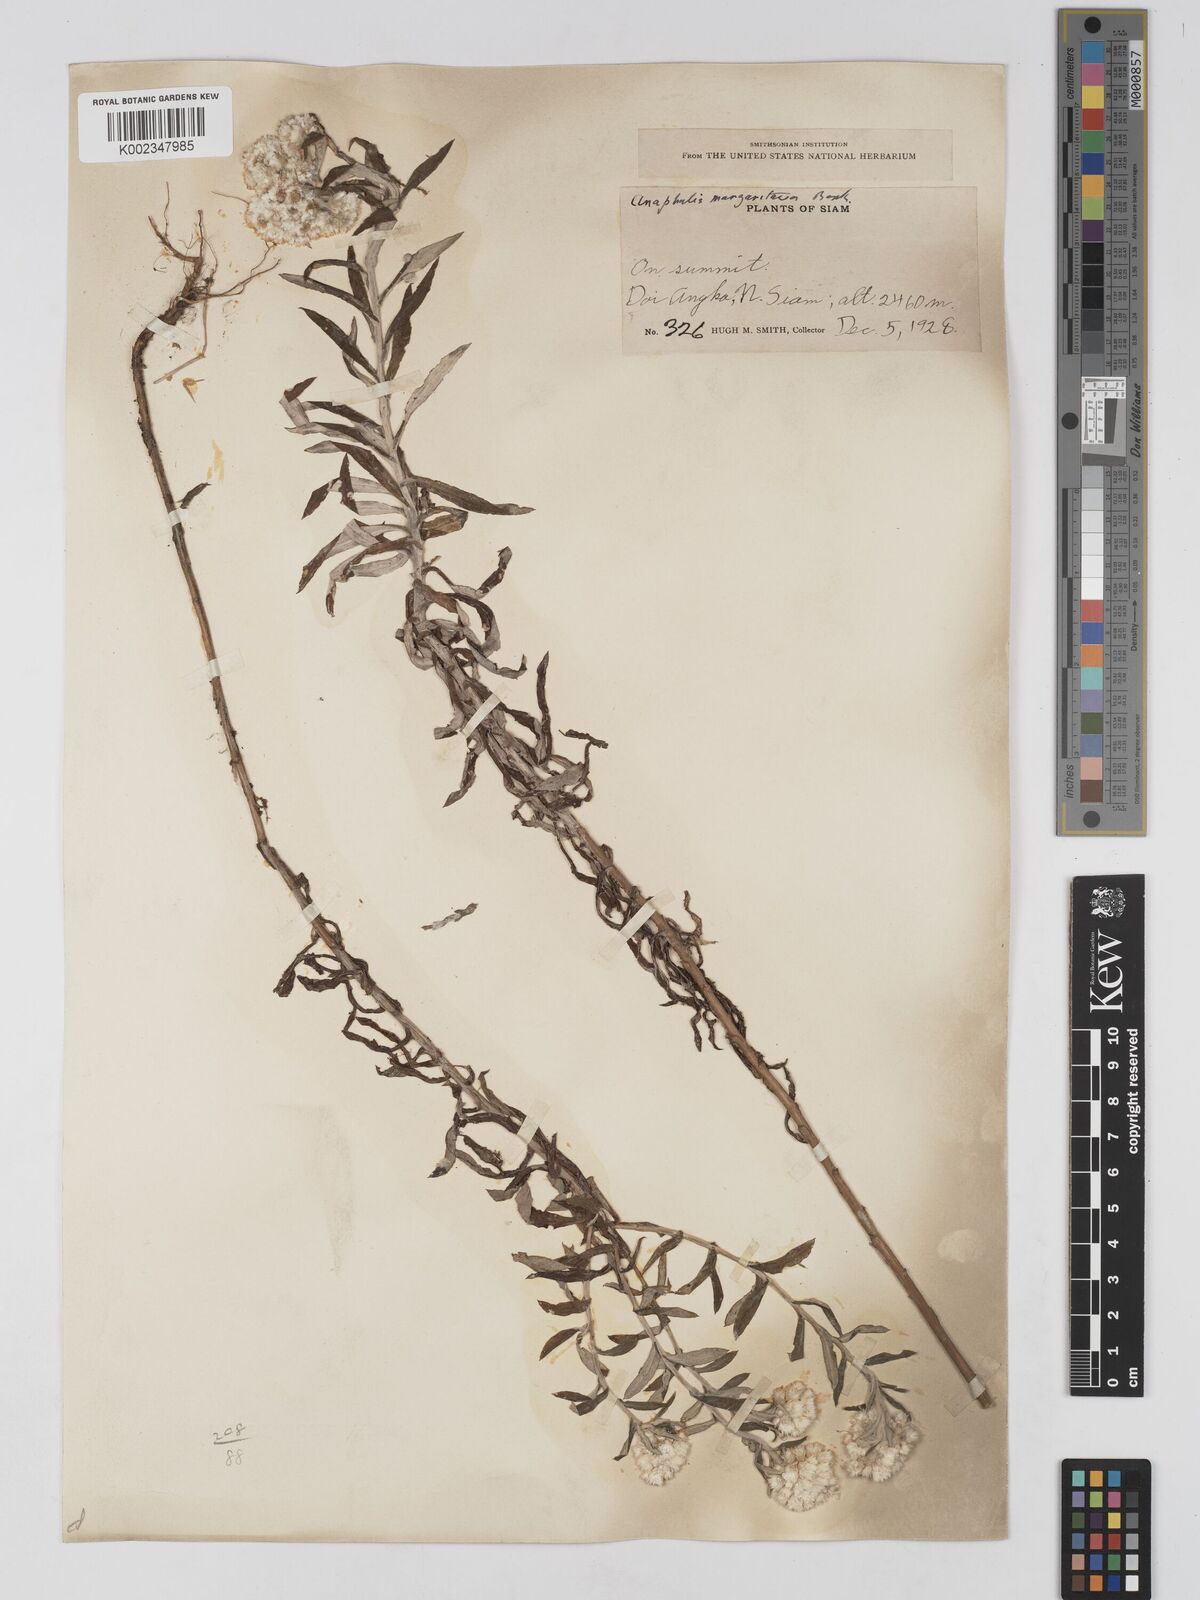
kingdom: Plantae
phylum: Tracheophyta
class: Magnoliopsida
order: Asterales
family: Asteraceae
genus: Anaphalis
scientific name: Anaphalis margaritacea
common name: Pearly everlasting
